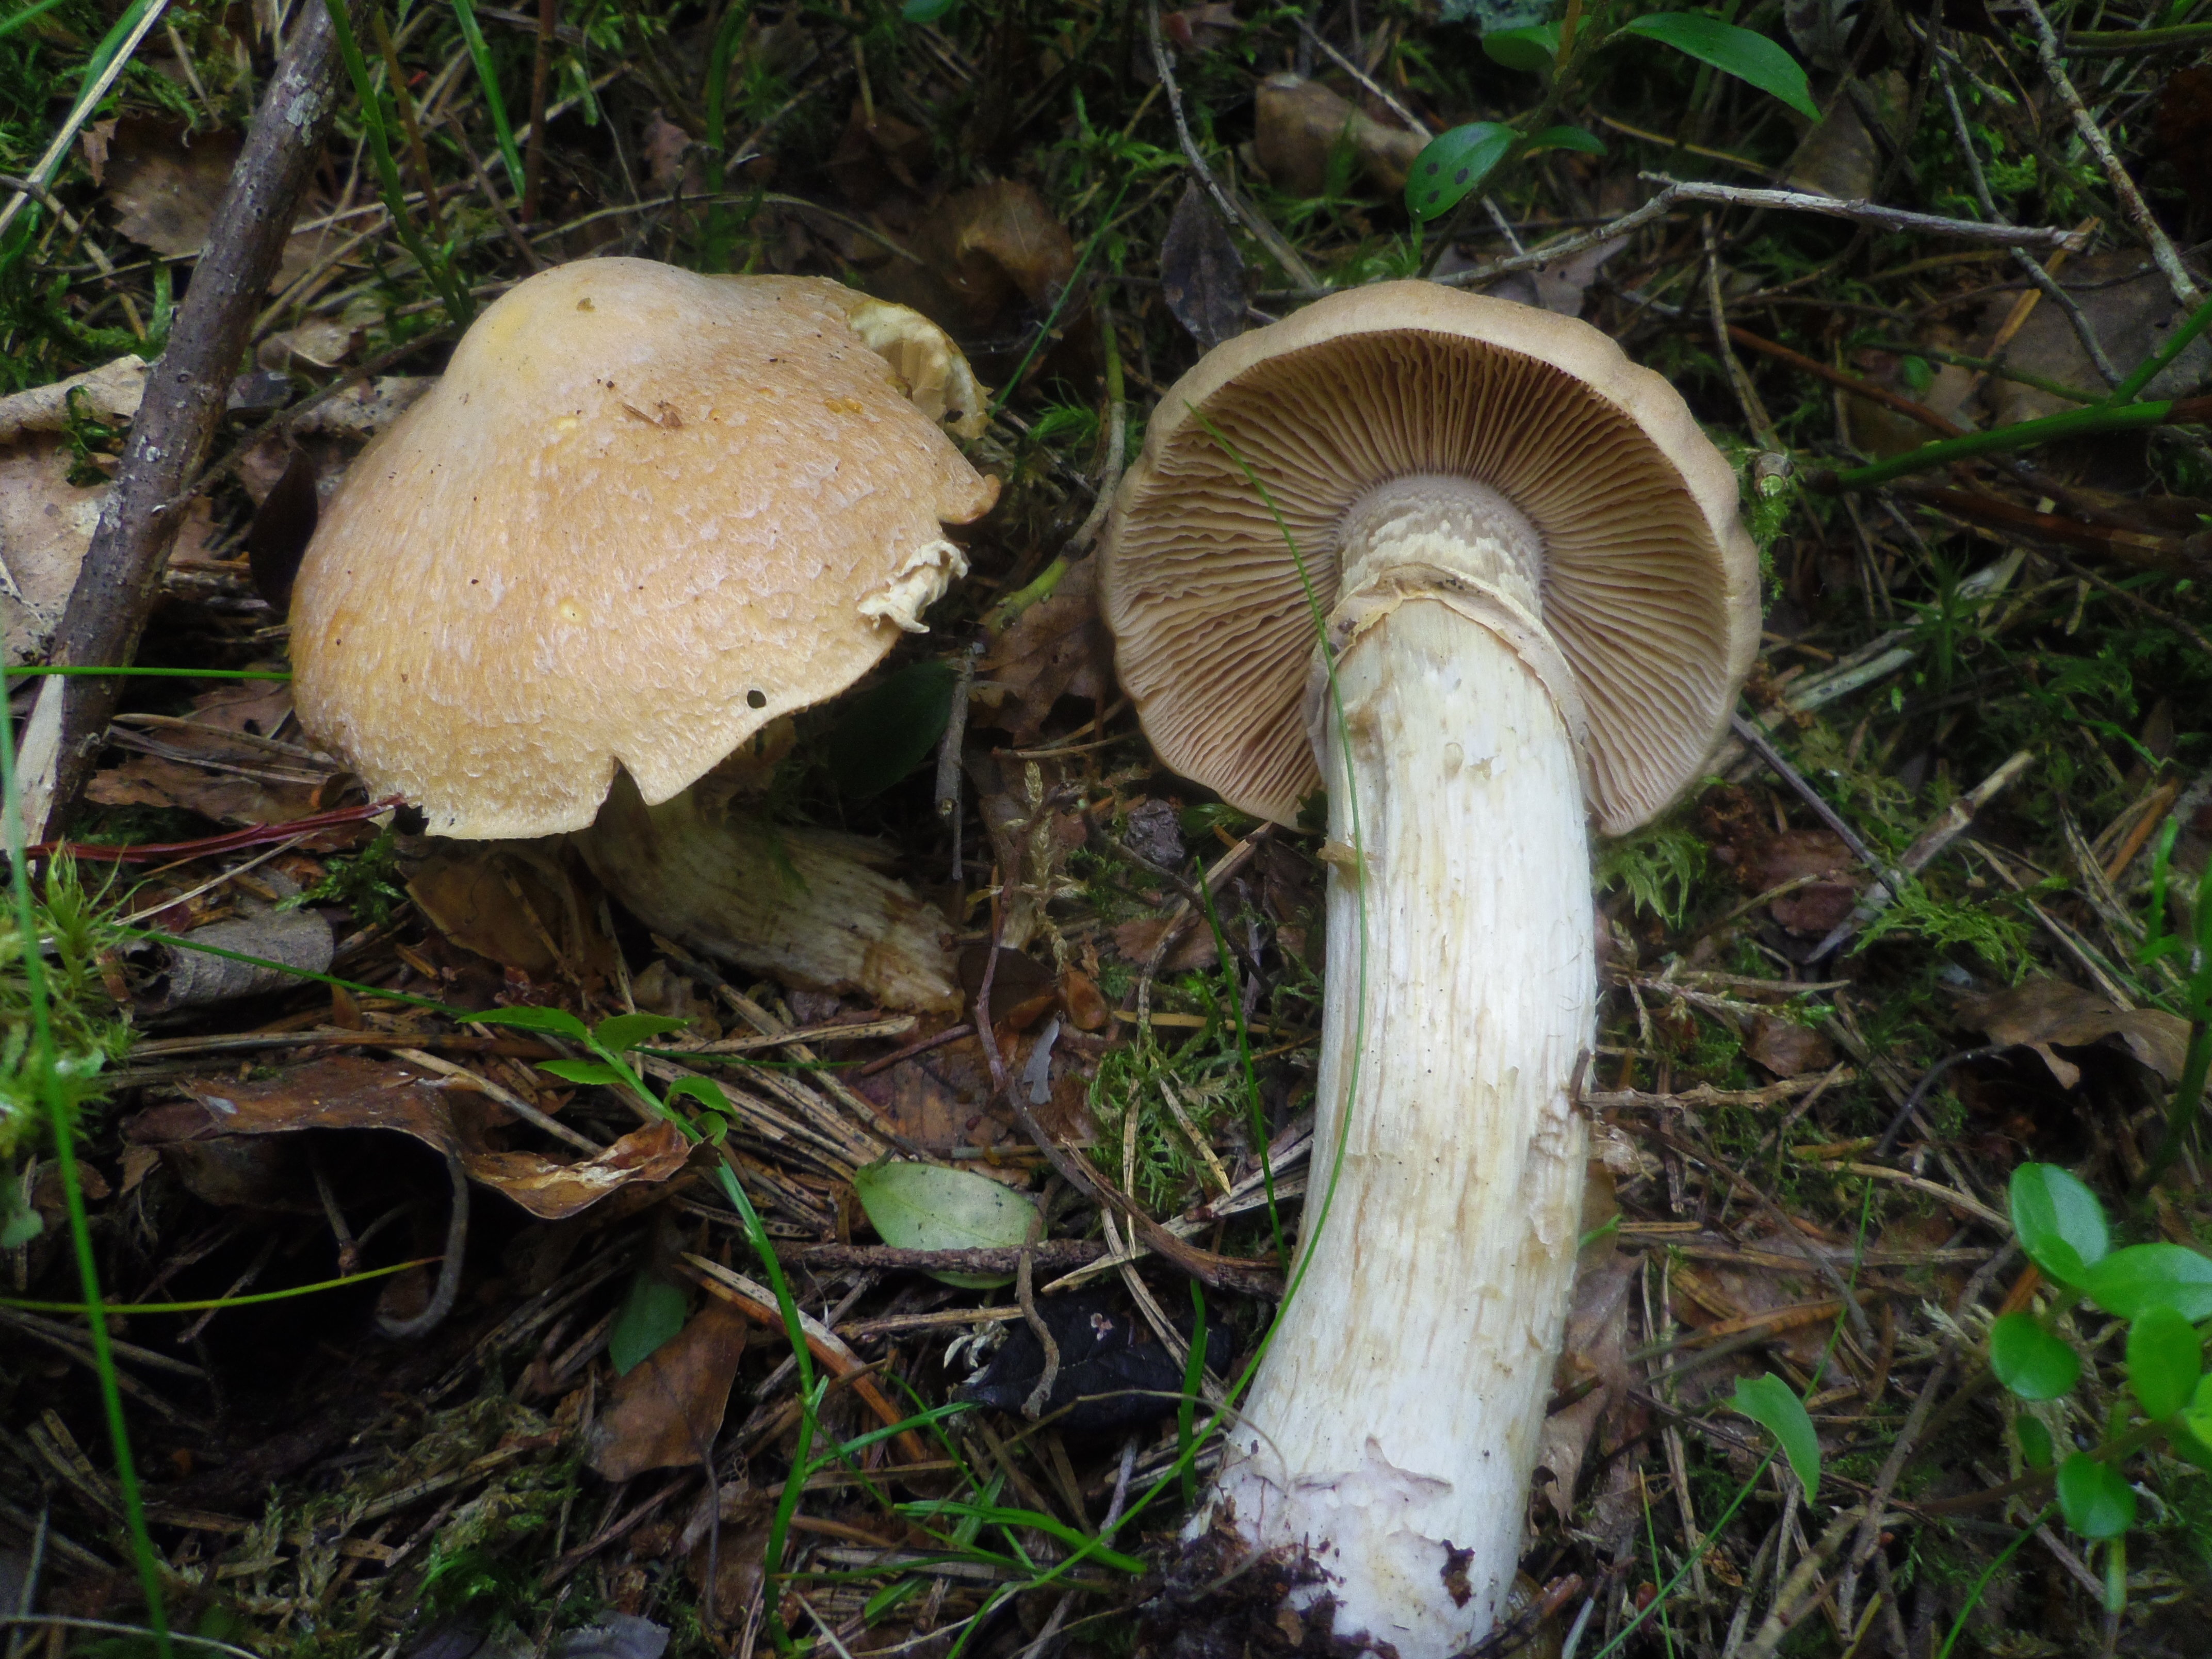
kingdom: Fungi
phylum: Basidiomycota
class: Agaricomycetes
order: Agaricales
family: Cortinariaceae
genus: Cortinarius
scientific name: Cortinarius caperatus
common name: The gypsy
